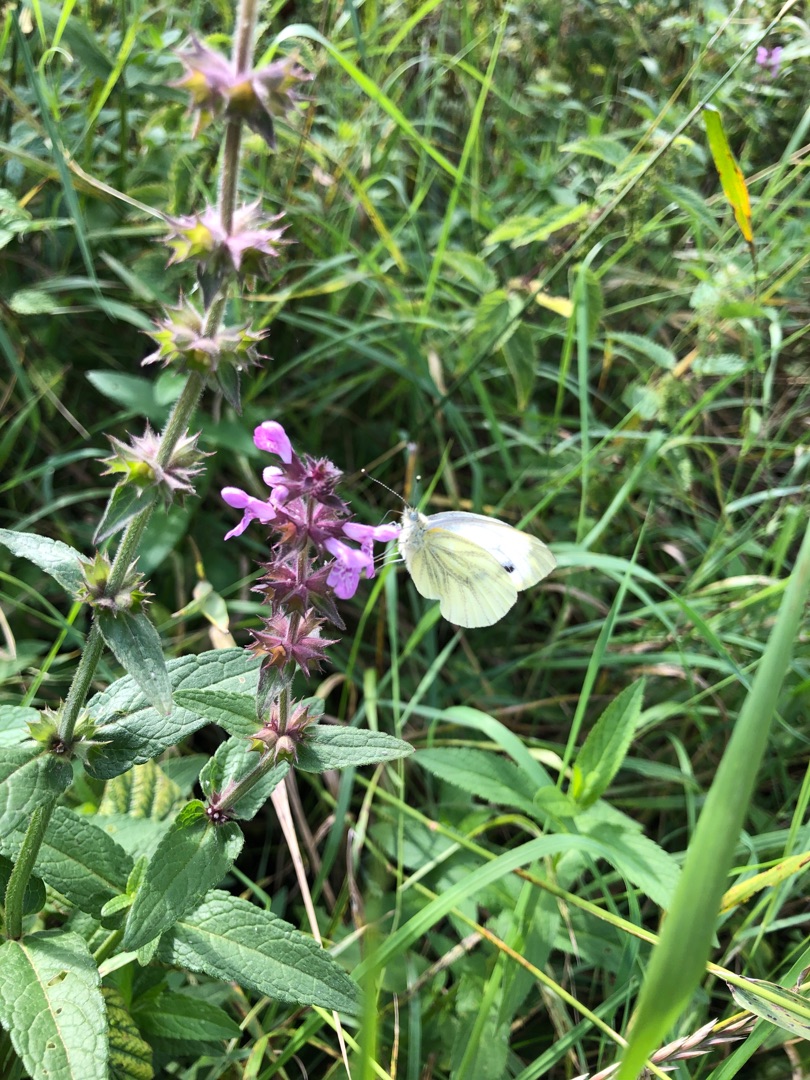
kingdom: Animalia
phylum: Arthropoda
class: Insecta
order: Lepidoptera
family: Pieridae
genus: Pieris
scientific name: Pieris napi
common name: Grønåret kålsommerfugl
